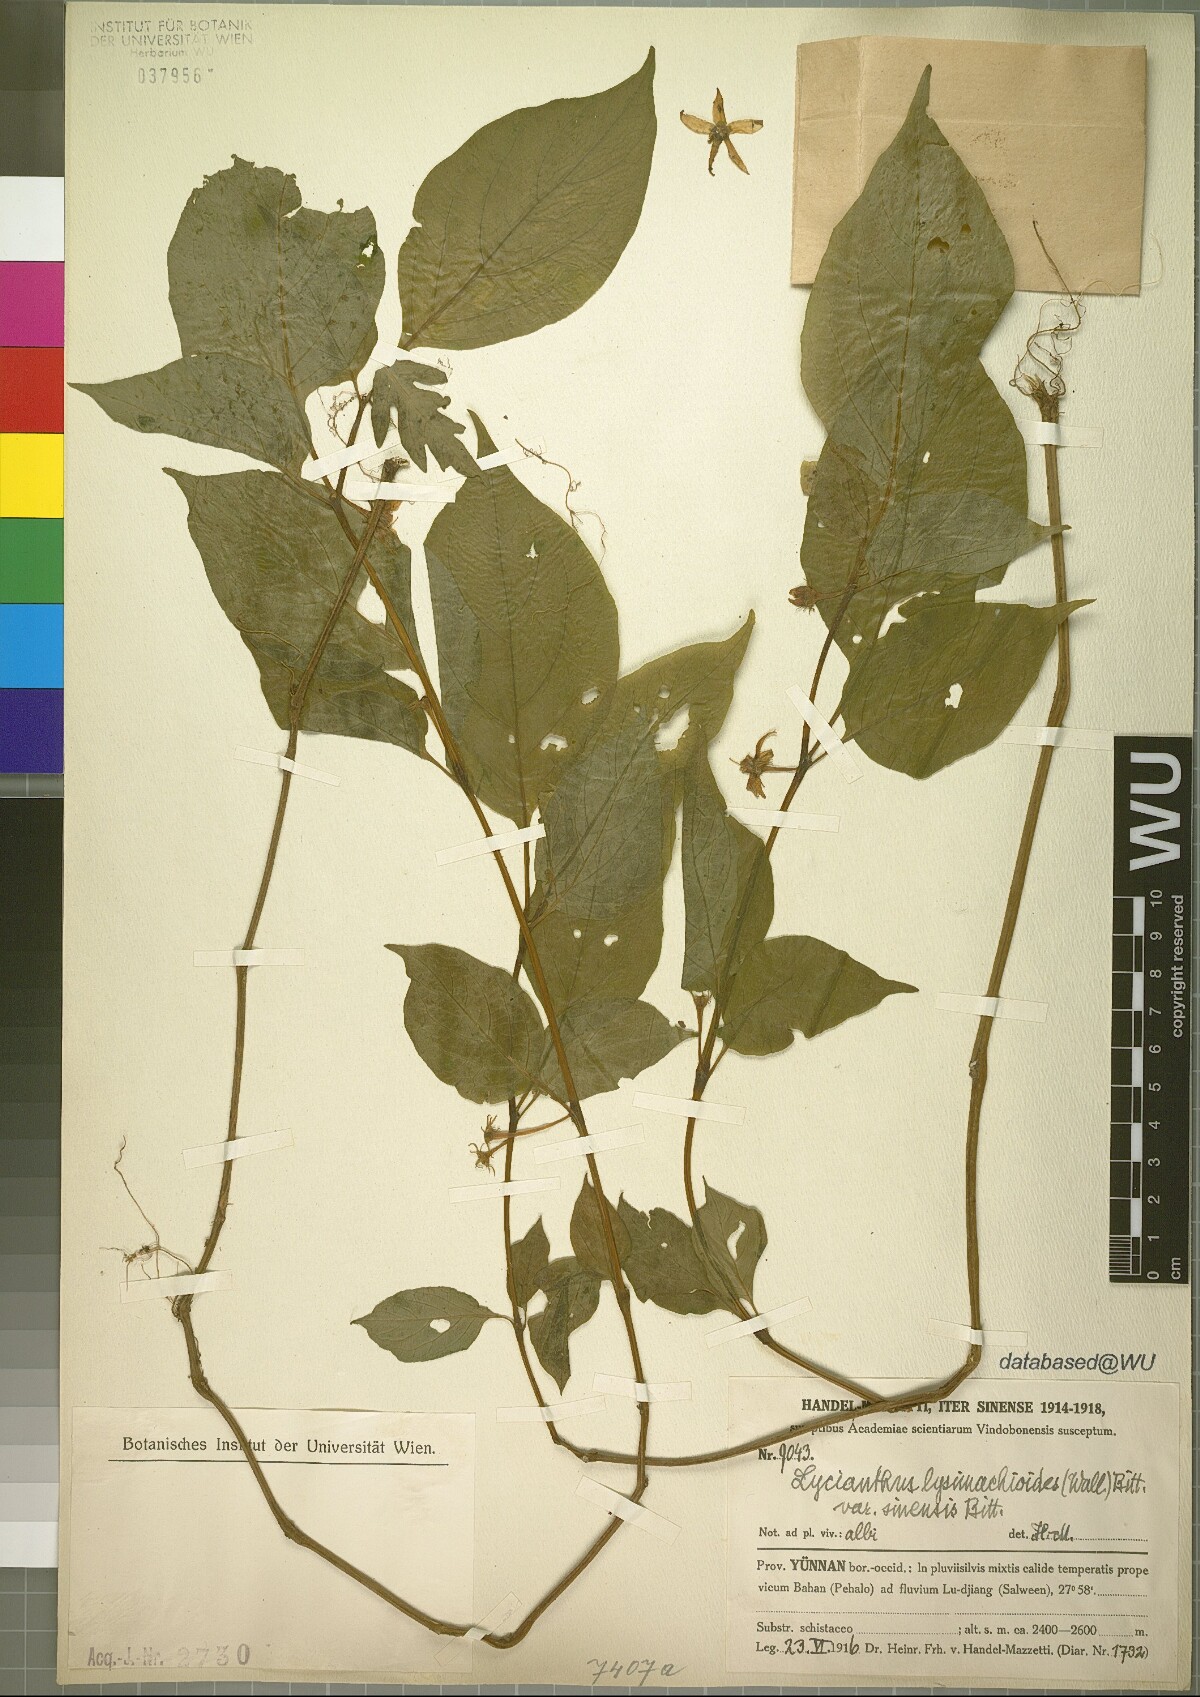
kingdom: Plantae
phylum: Tracheophyta
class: Magnoliopsida
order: Solanales
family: Solanaceae
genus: Lycianthes
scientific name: Lycianthes lysimachioides
